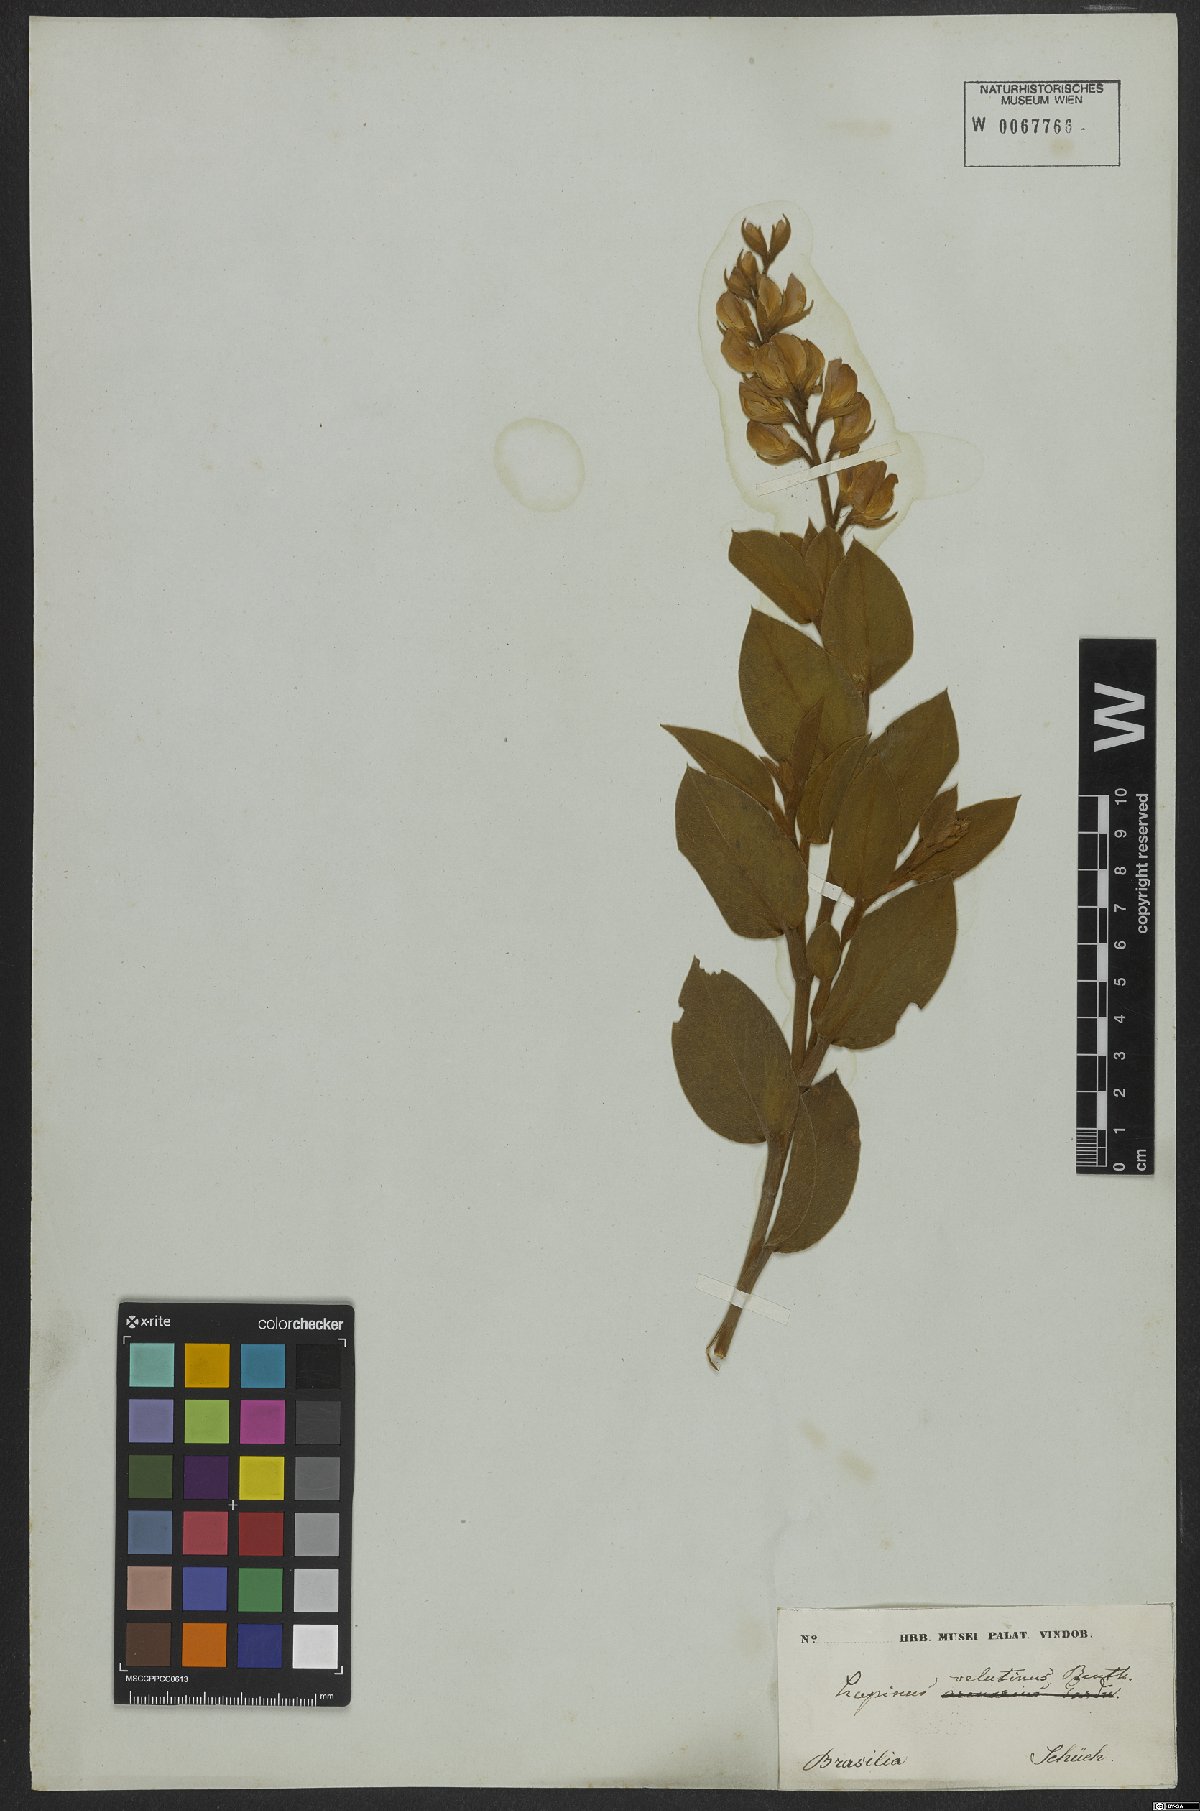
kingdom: Plantae
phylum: Tracheophyta
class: Magnoliopsida
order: Fabales
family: Fabaceae
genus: Lupinus
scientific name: Lupinus velutinus
